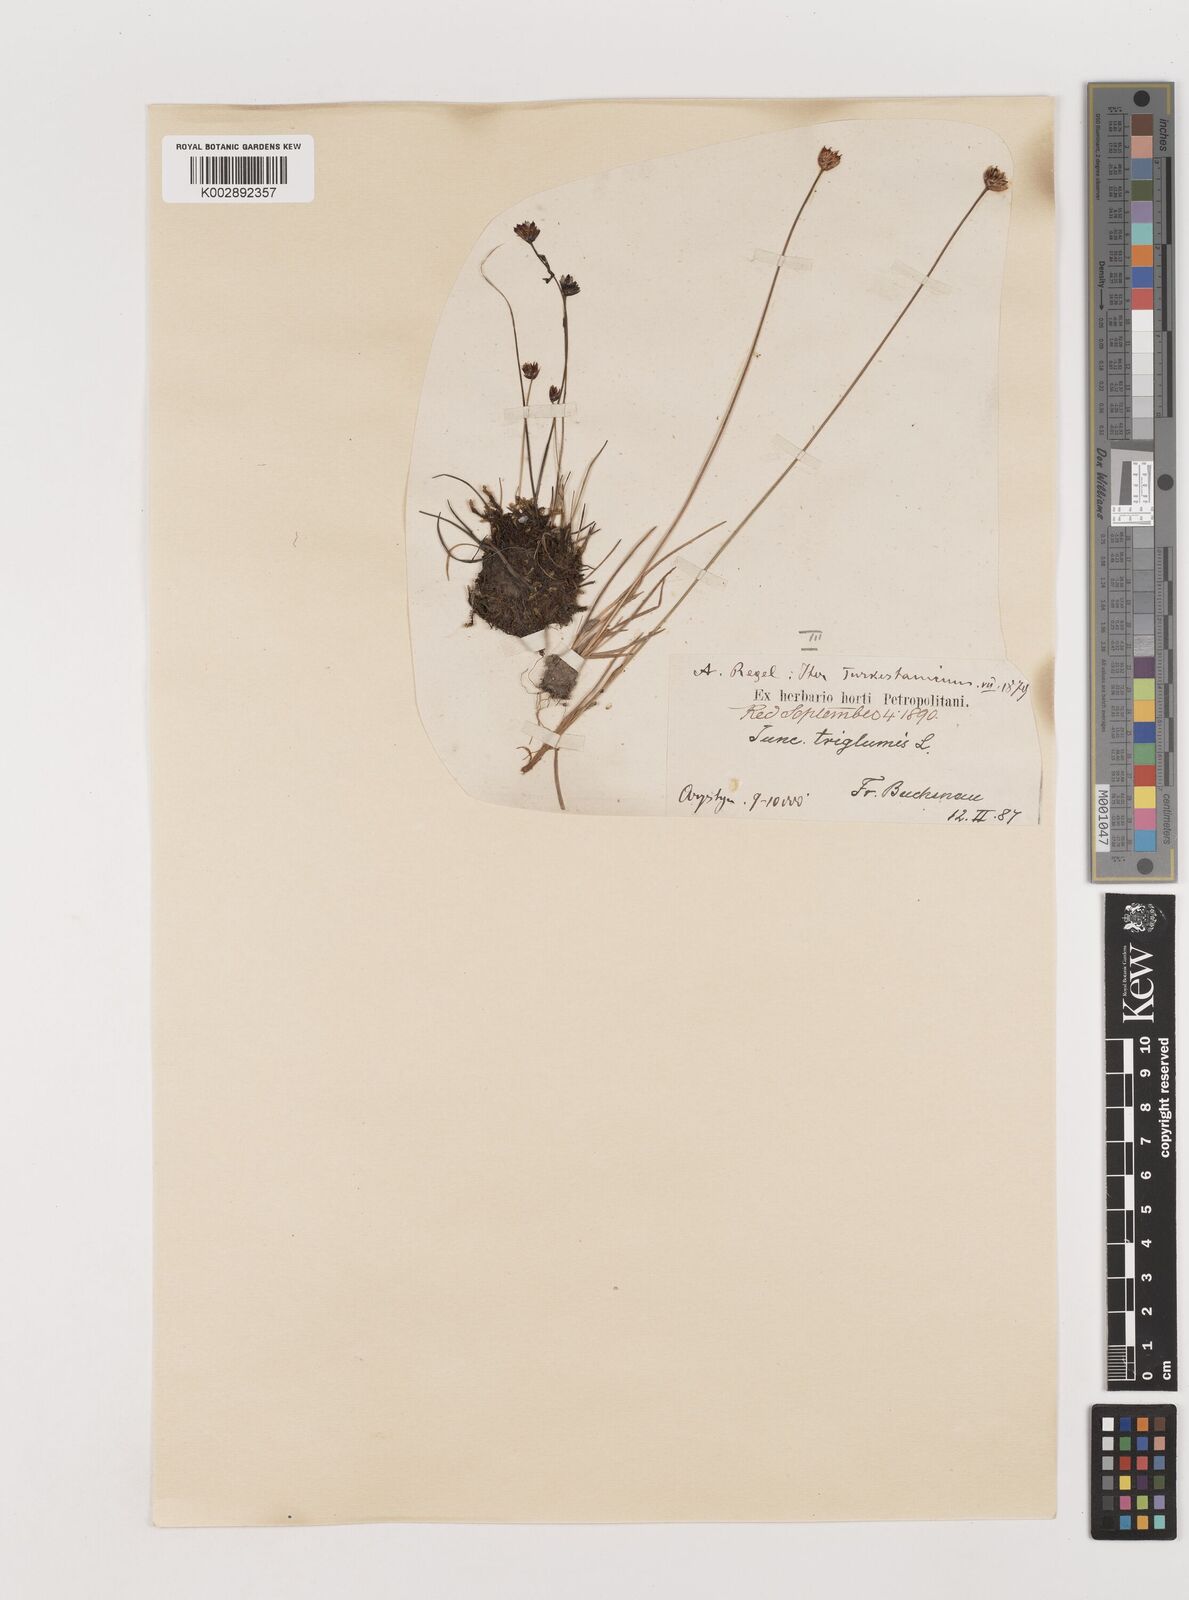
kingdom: Plantae
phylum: Tracheophyta
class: Liliopsida
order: Poales
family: Juncaceae
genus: Juncus
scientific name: Juncus triglumis
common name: Three-flowered rush
